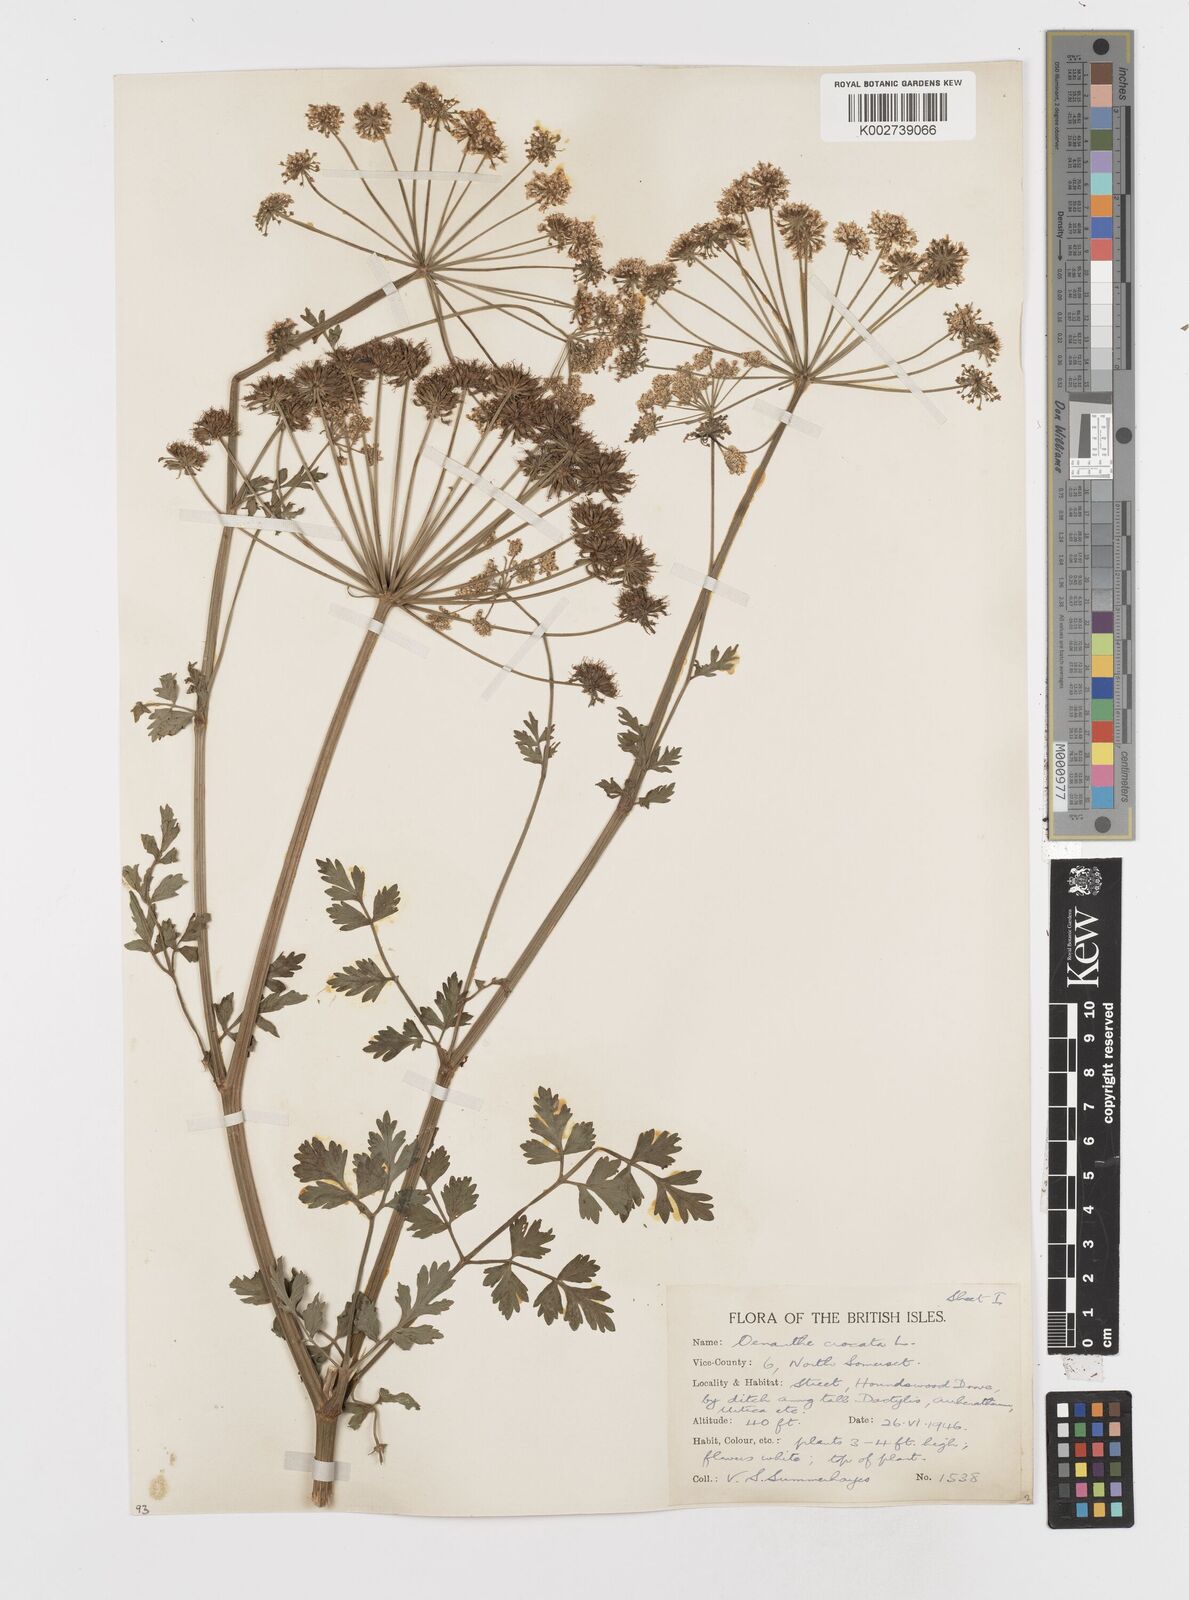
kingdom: Plantae
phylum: Tracheophyta
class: Magnoliopsida
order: Apiales
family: Apiaceae
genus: Oenanthe
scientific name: Oenanthe crocata
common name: Hemlock water-dropwort
